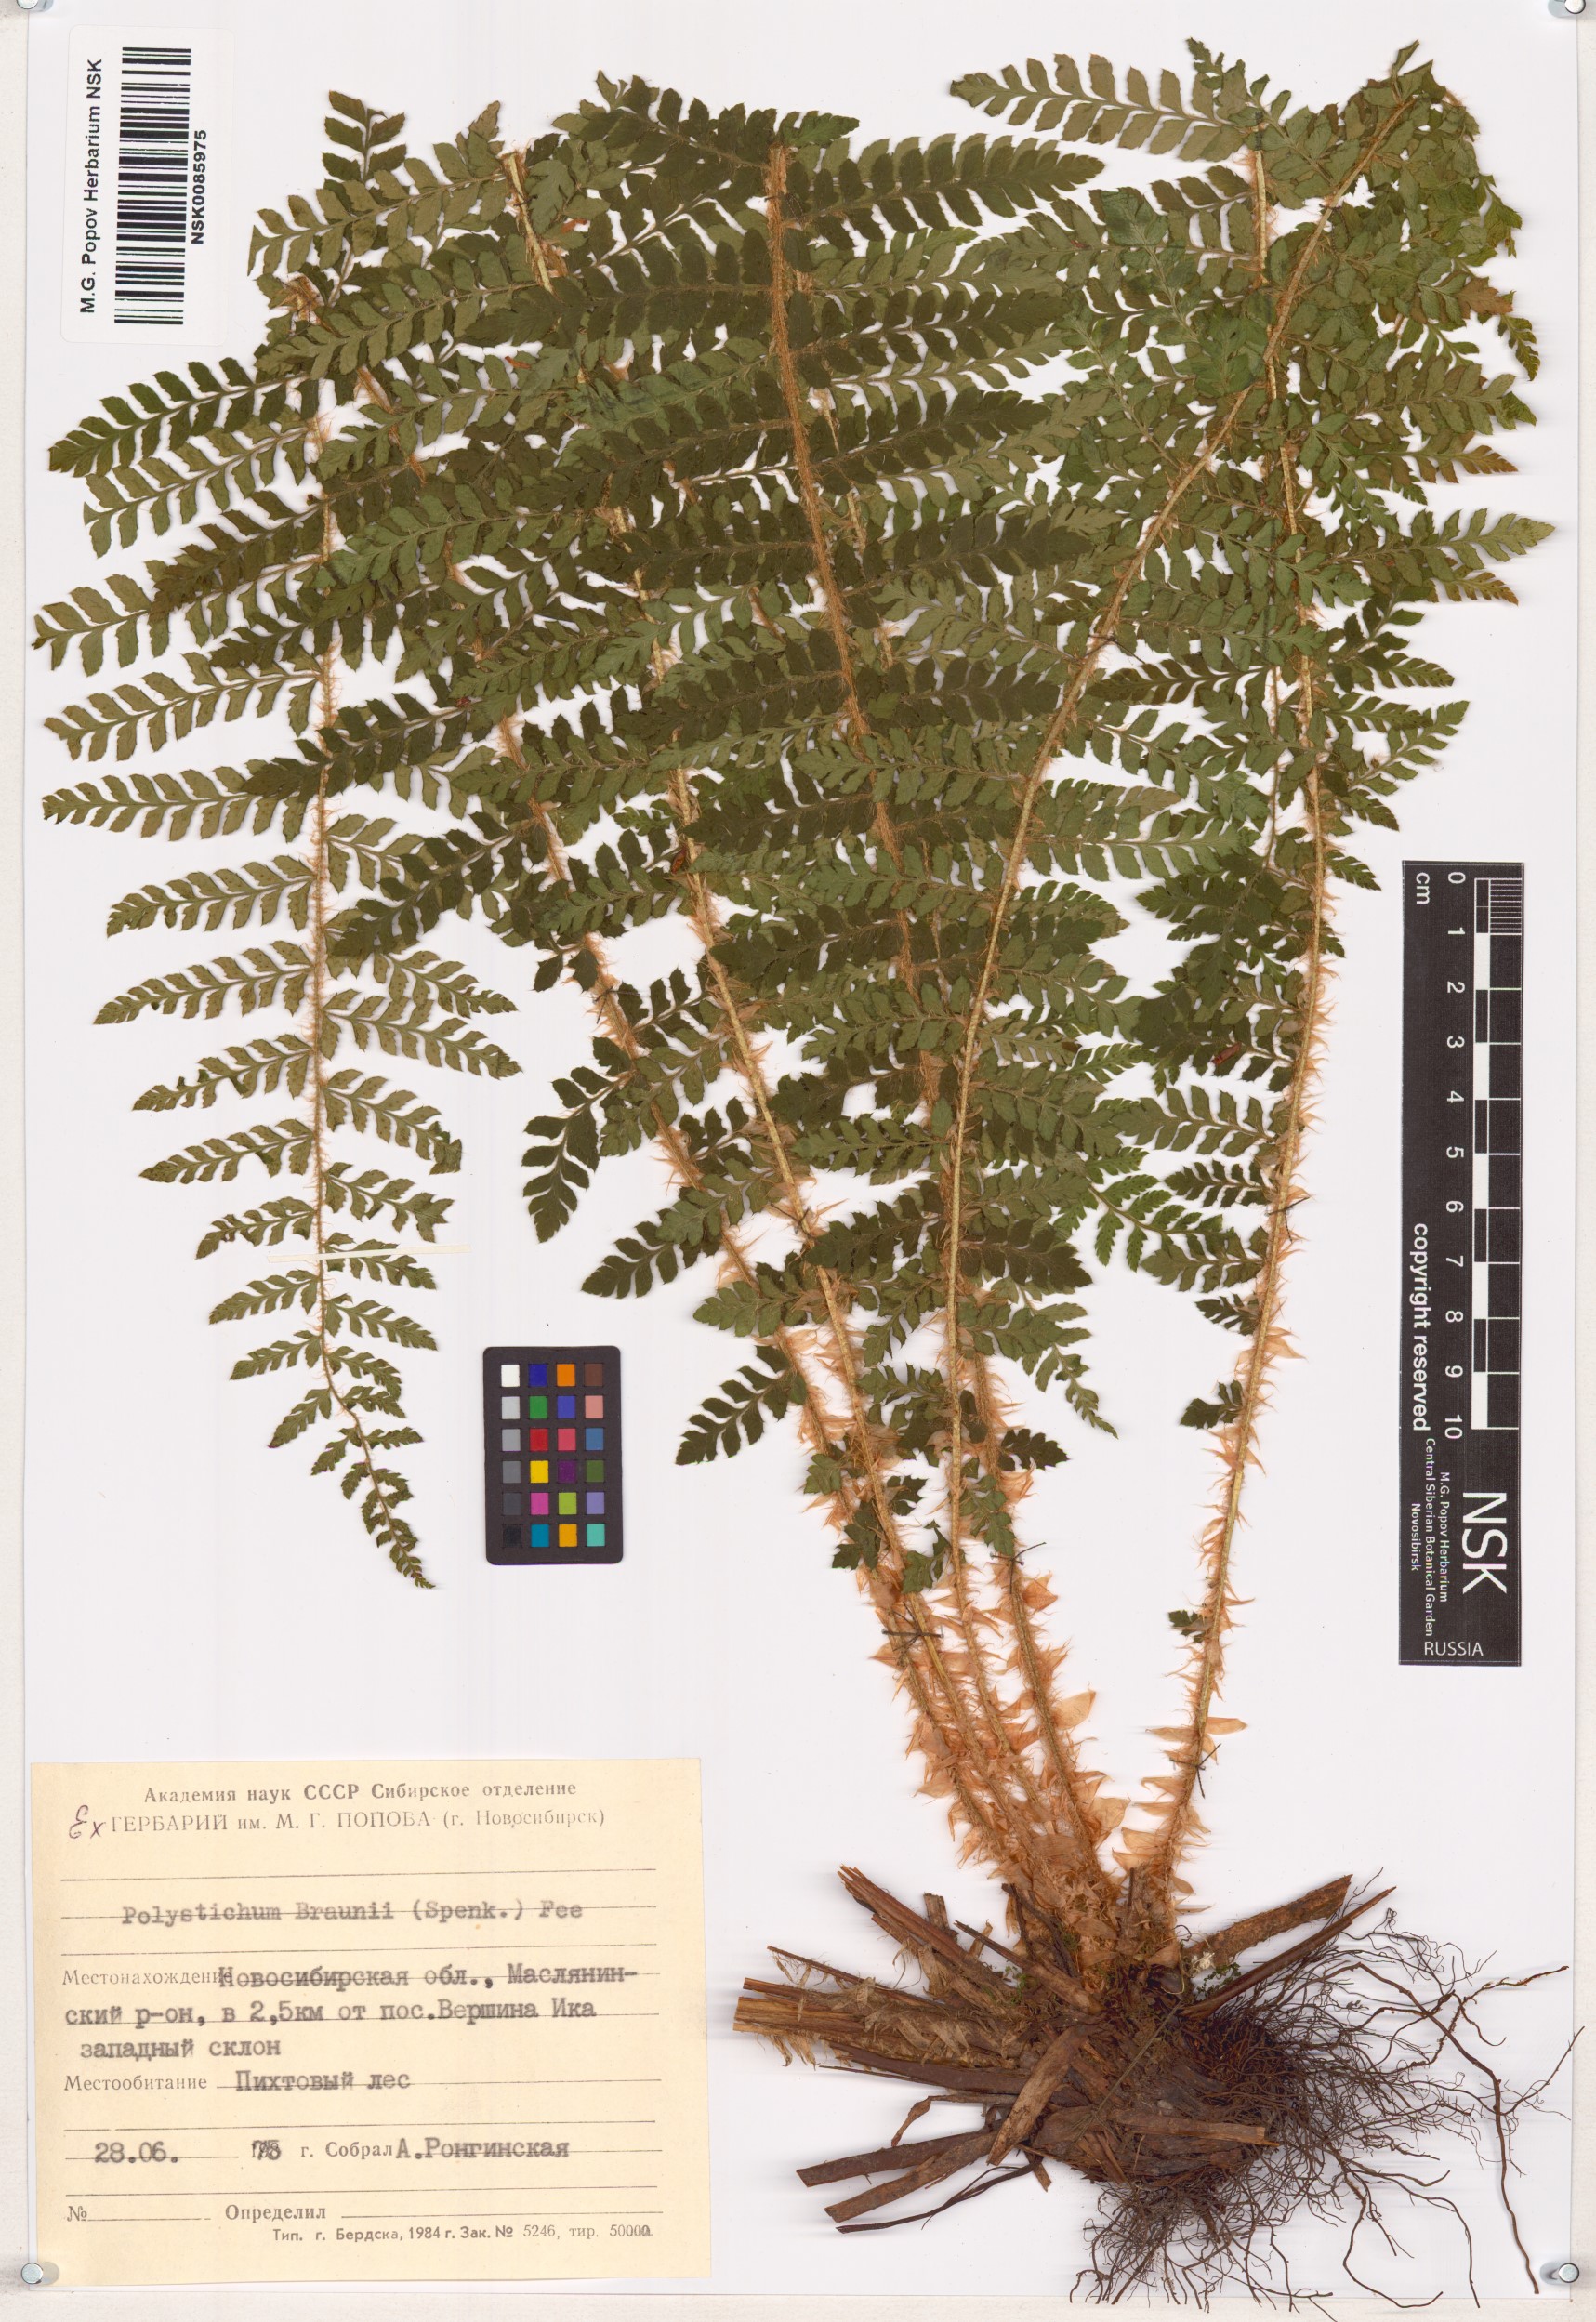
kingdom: Plantae
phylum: Tracheophyta
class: Polypodiopsida
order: Polypodiales
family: Dryopteridaceae
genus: Polystichum
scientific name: Polystichum braunii
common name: Braun's holly fern
